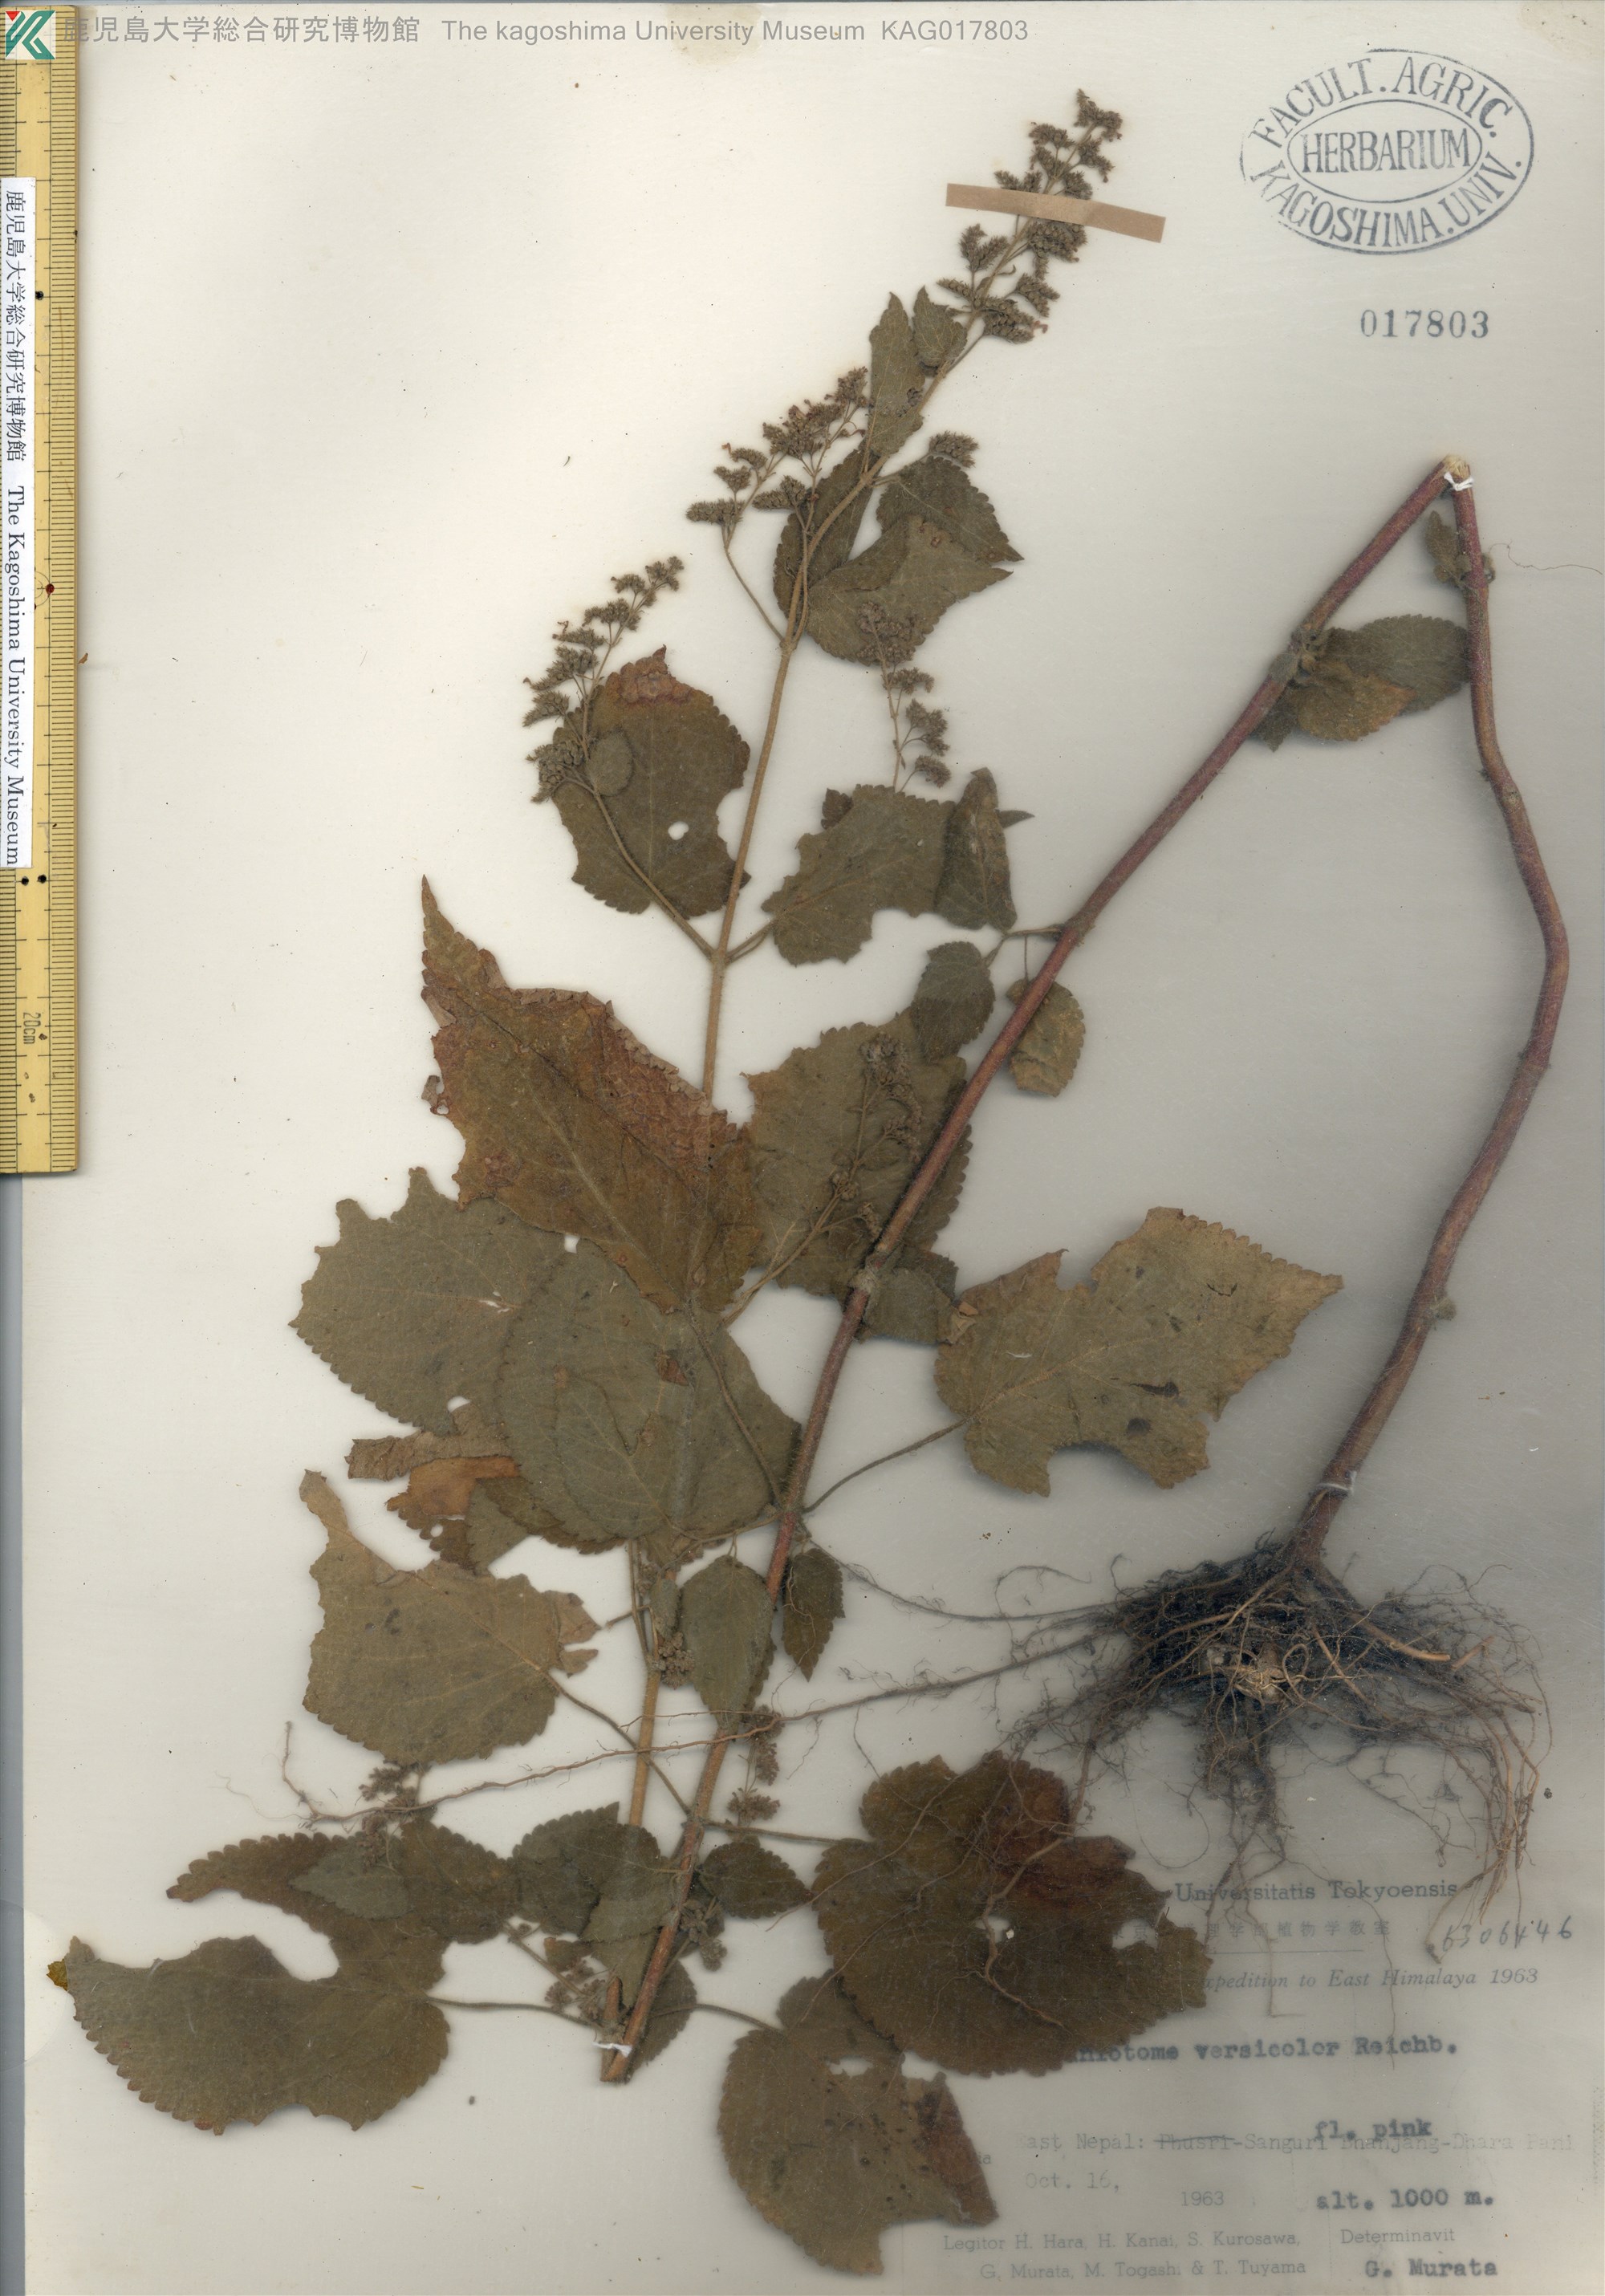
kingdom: Plantae
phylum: Tracheophyta
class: Magnoliopsida
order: Lamiales
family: Lamiaceae
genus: Craniotome
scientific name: Craniotome furcata
